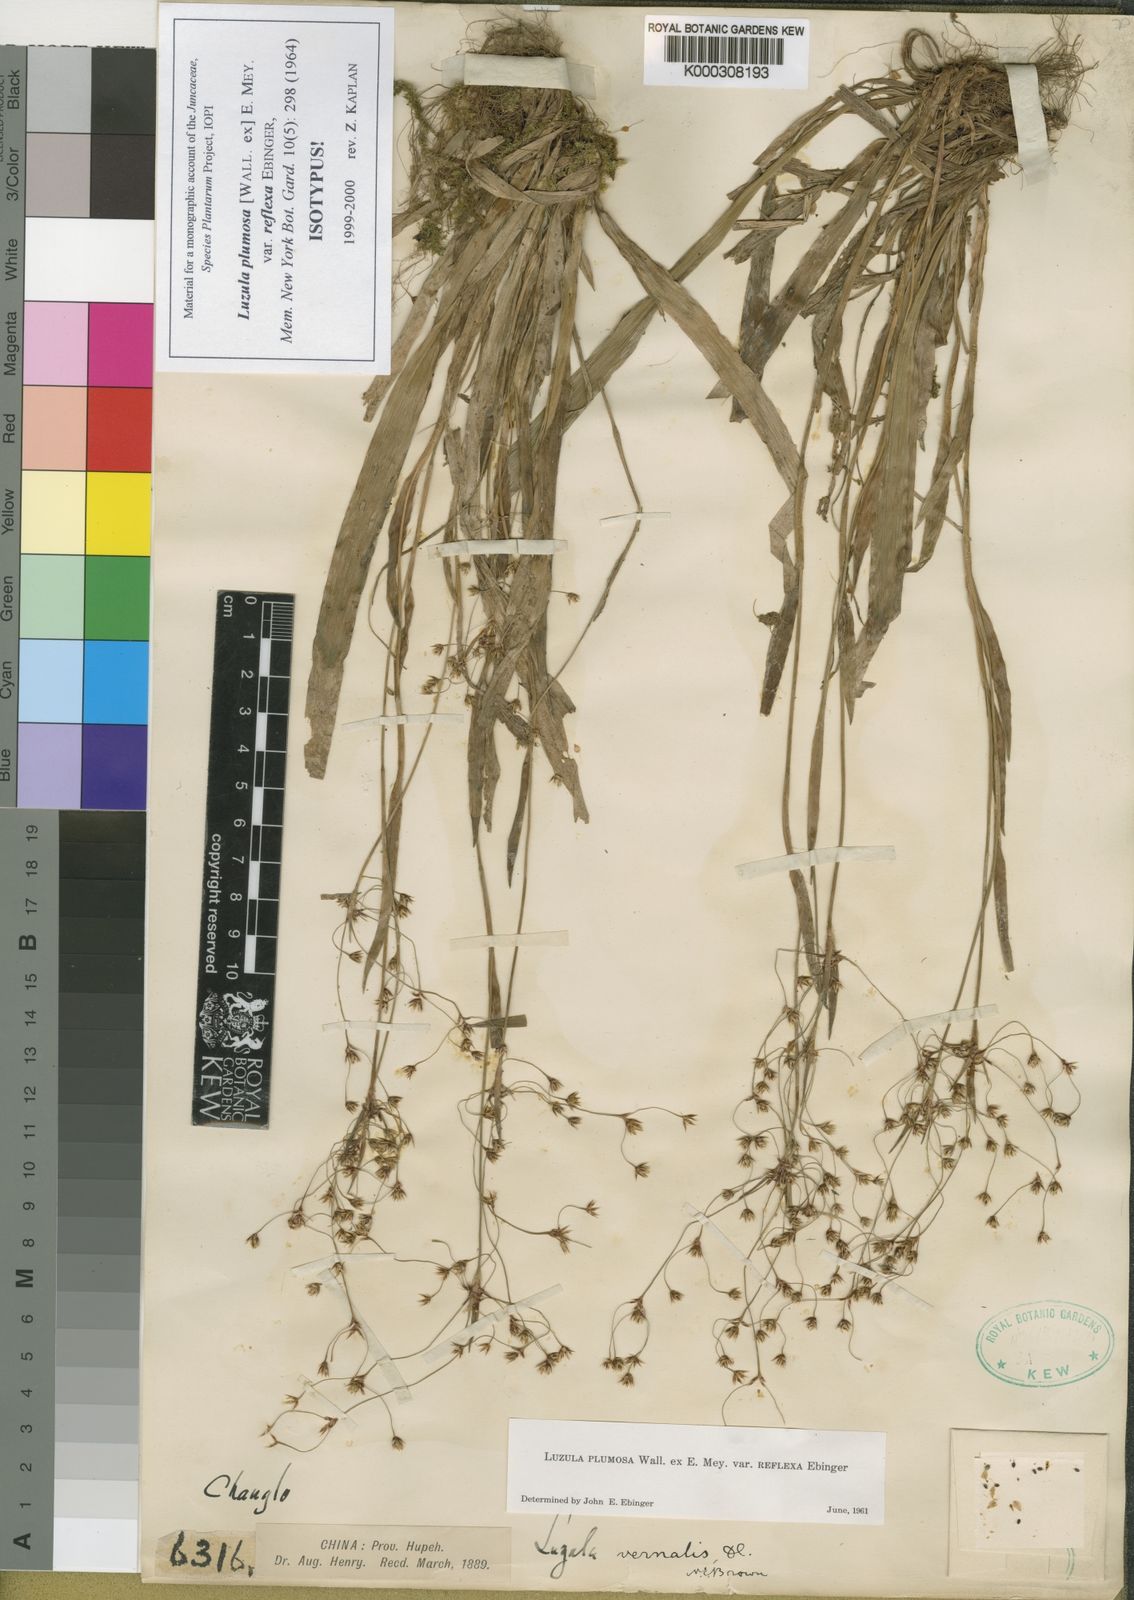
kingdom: Plantae
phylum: Tracheophyta
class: Liliopsida
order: Poales
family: Juncaceae
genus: Luzula
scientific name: Luzula plumosa
